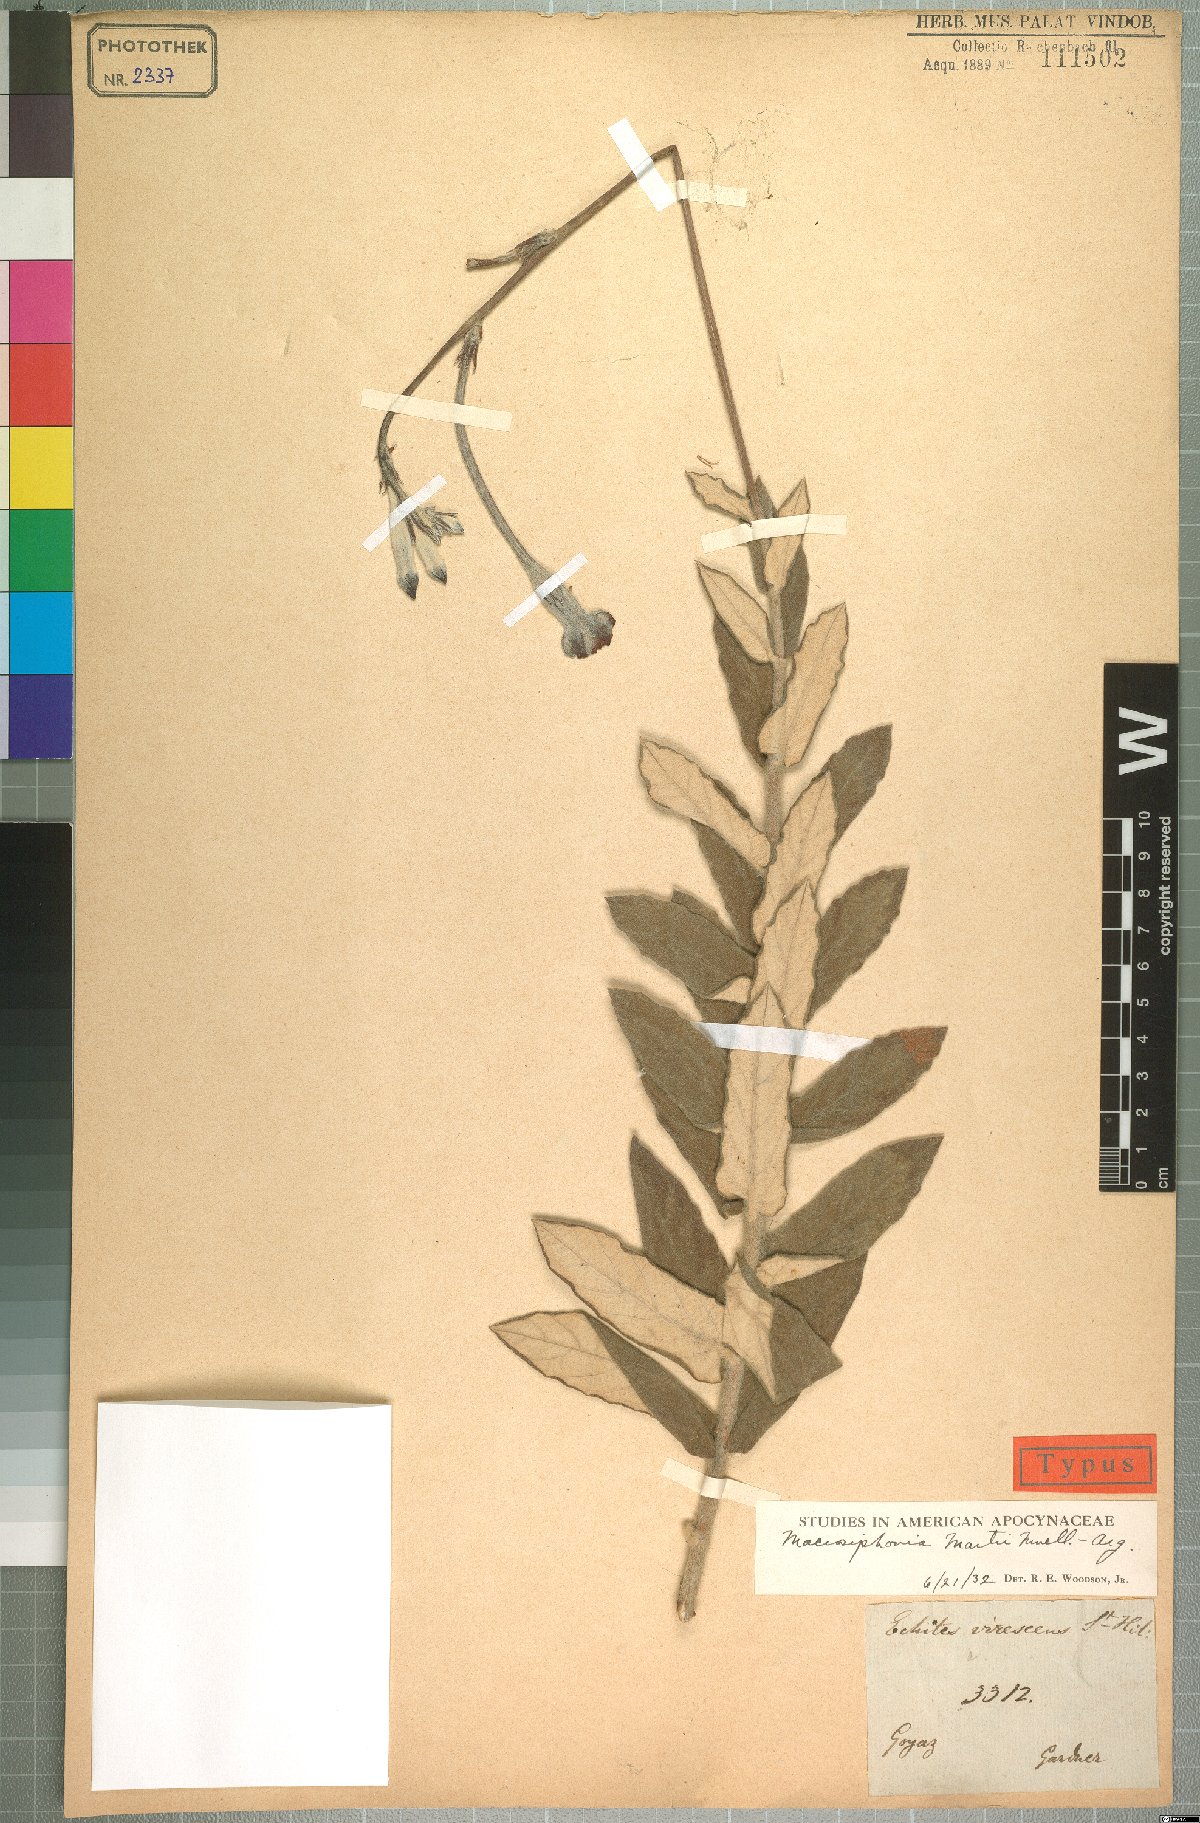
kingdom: Plantae
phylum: Tracheophyta
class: Magnoliopsida
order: Gentianales
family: Apocynaceae
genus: Mandevilla
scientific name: Mandevilla martii
